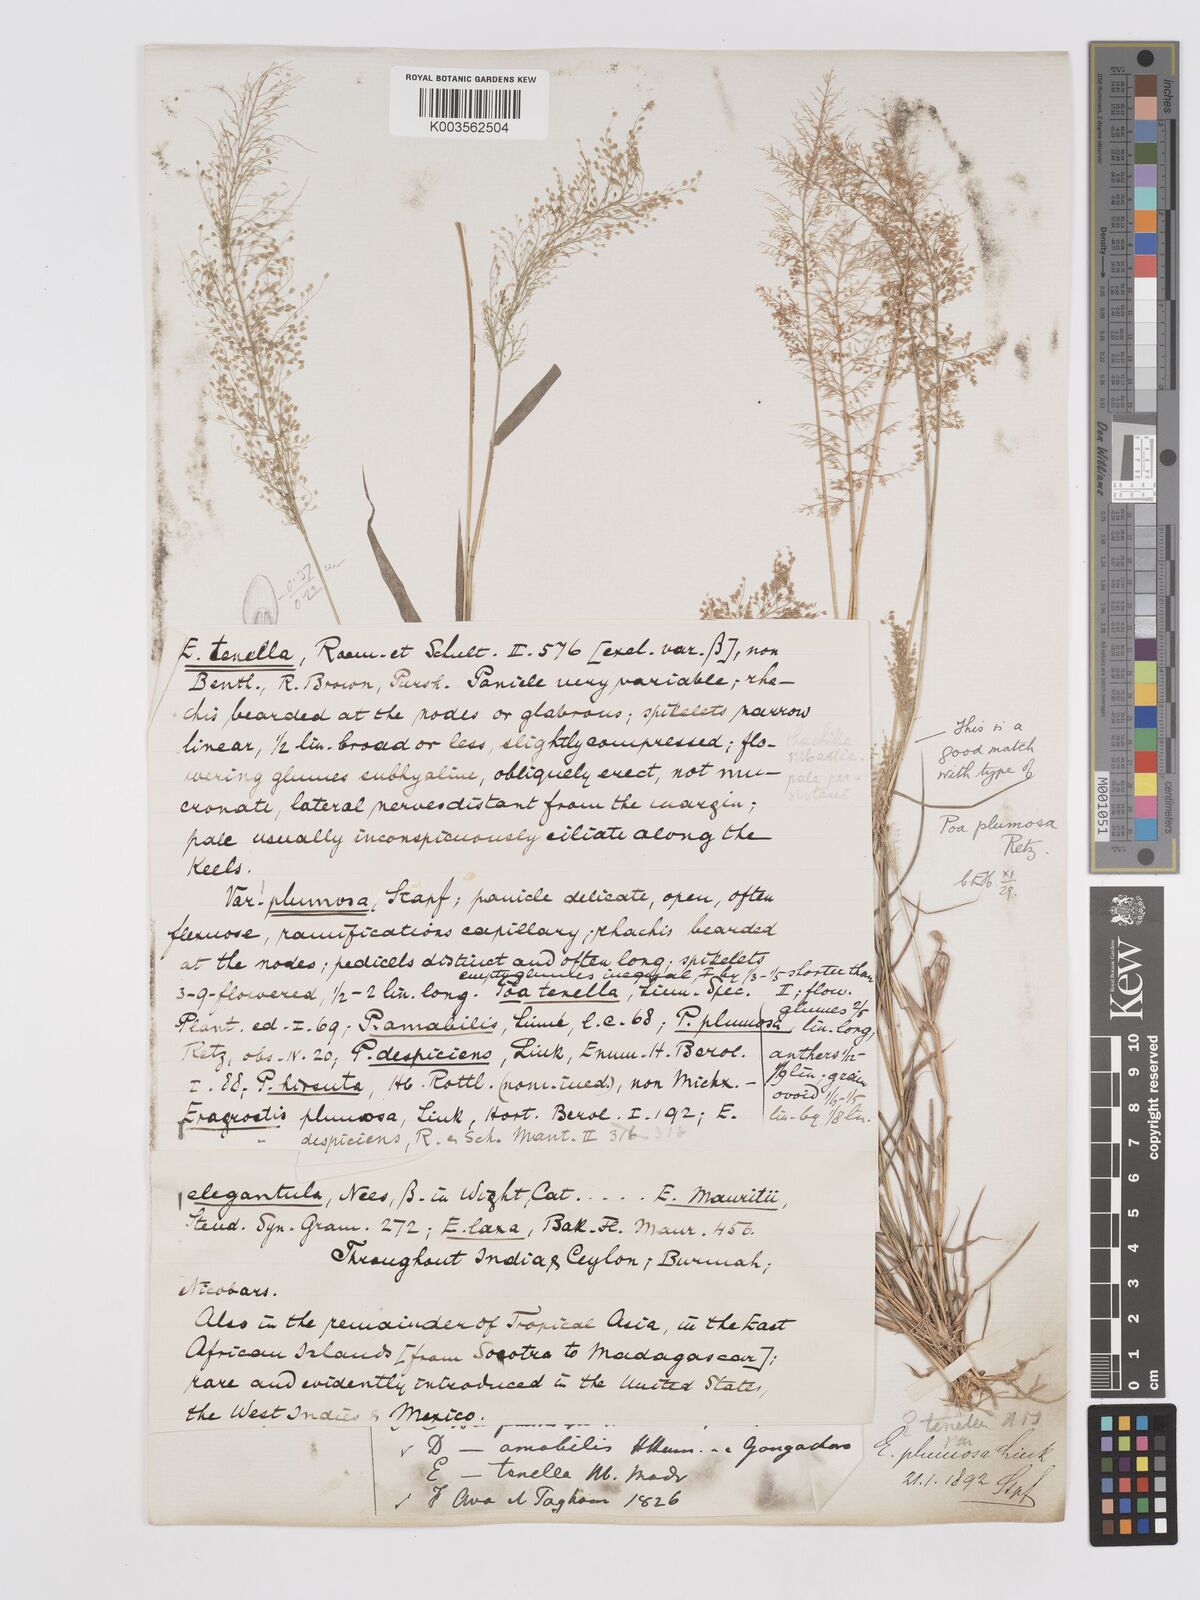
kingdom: Plantae
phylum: Tracheophyta
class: Liliopsida
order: Poales
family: Poaceae
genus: Eragrostis
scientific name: Eragrostis tenella
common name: Japanese lovegrass
